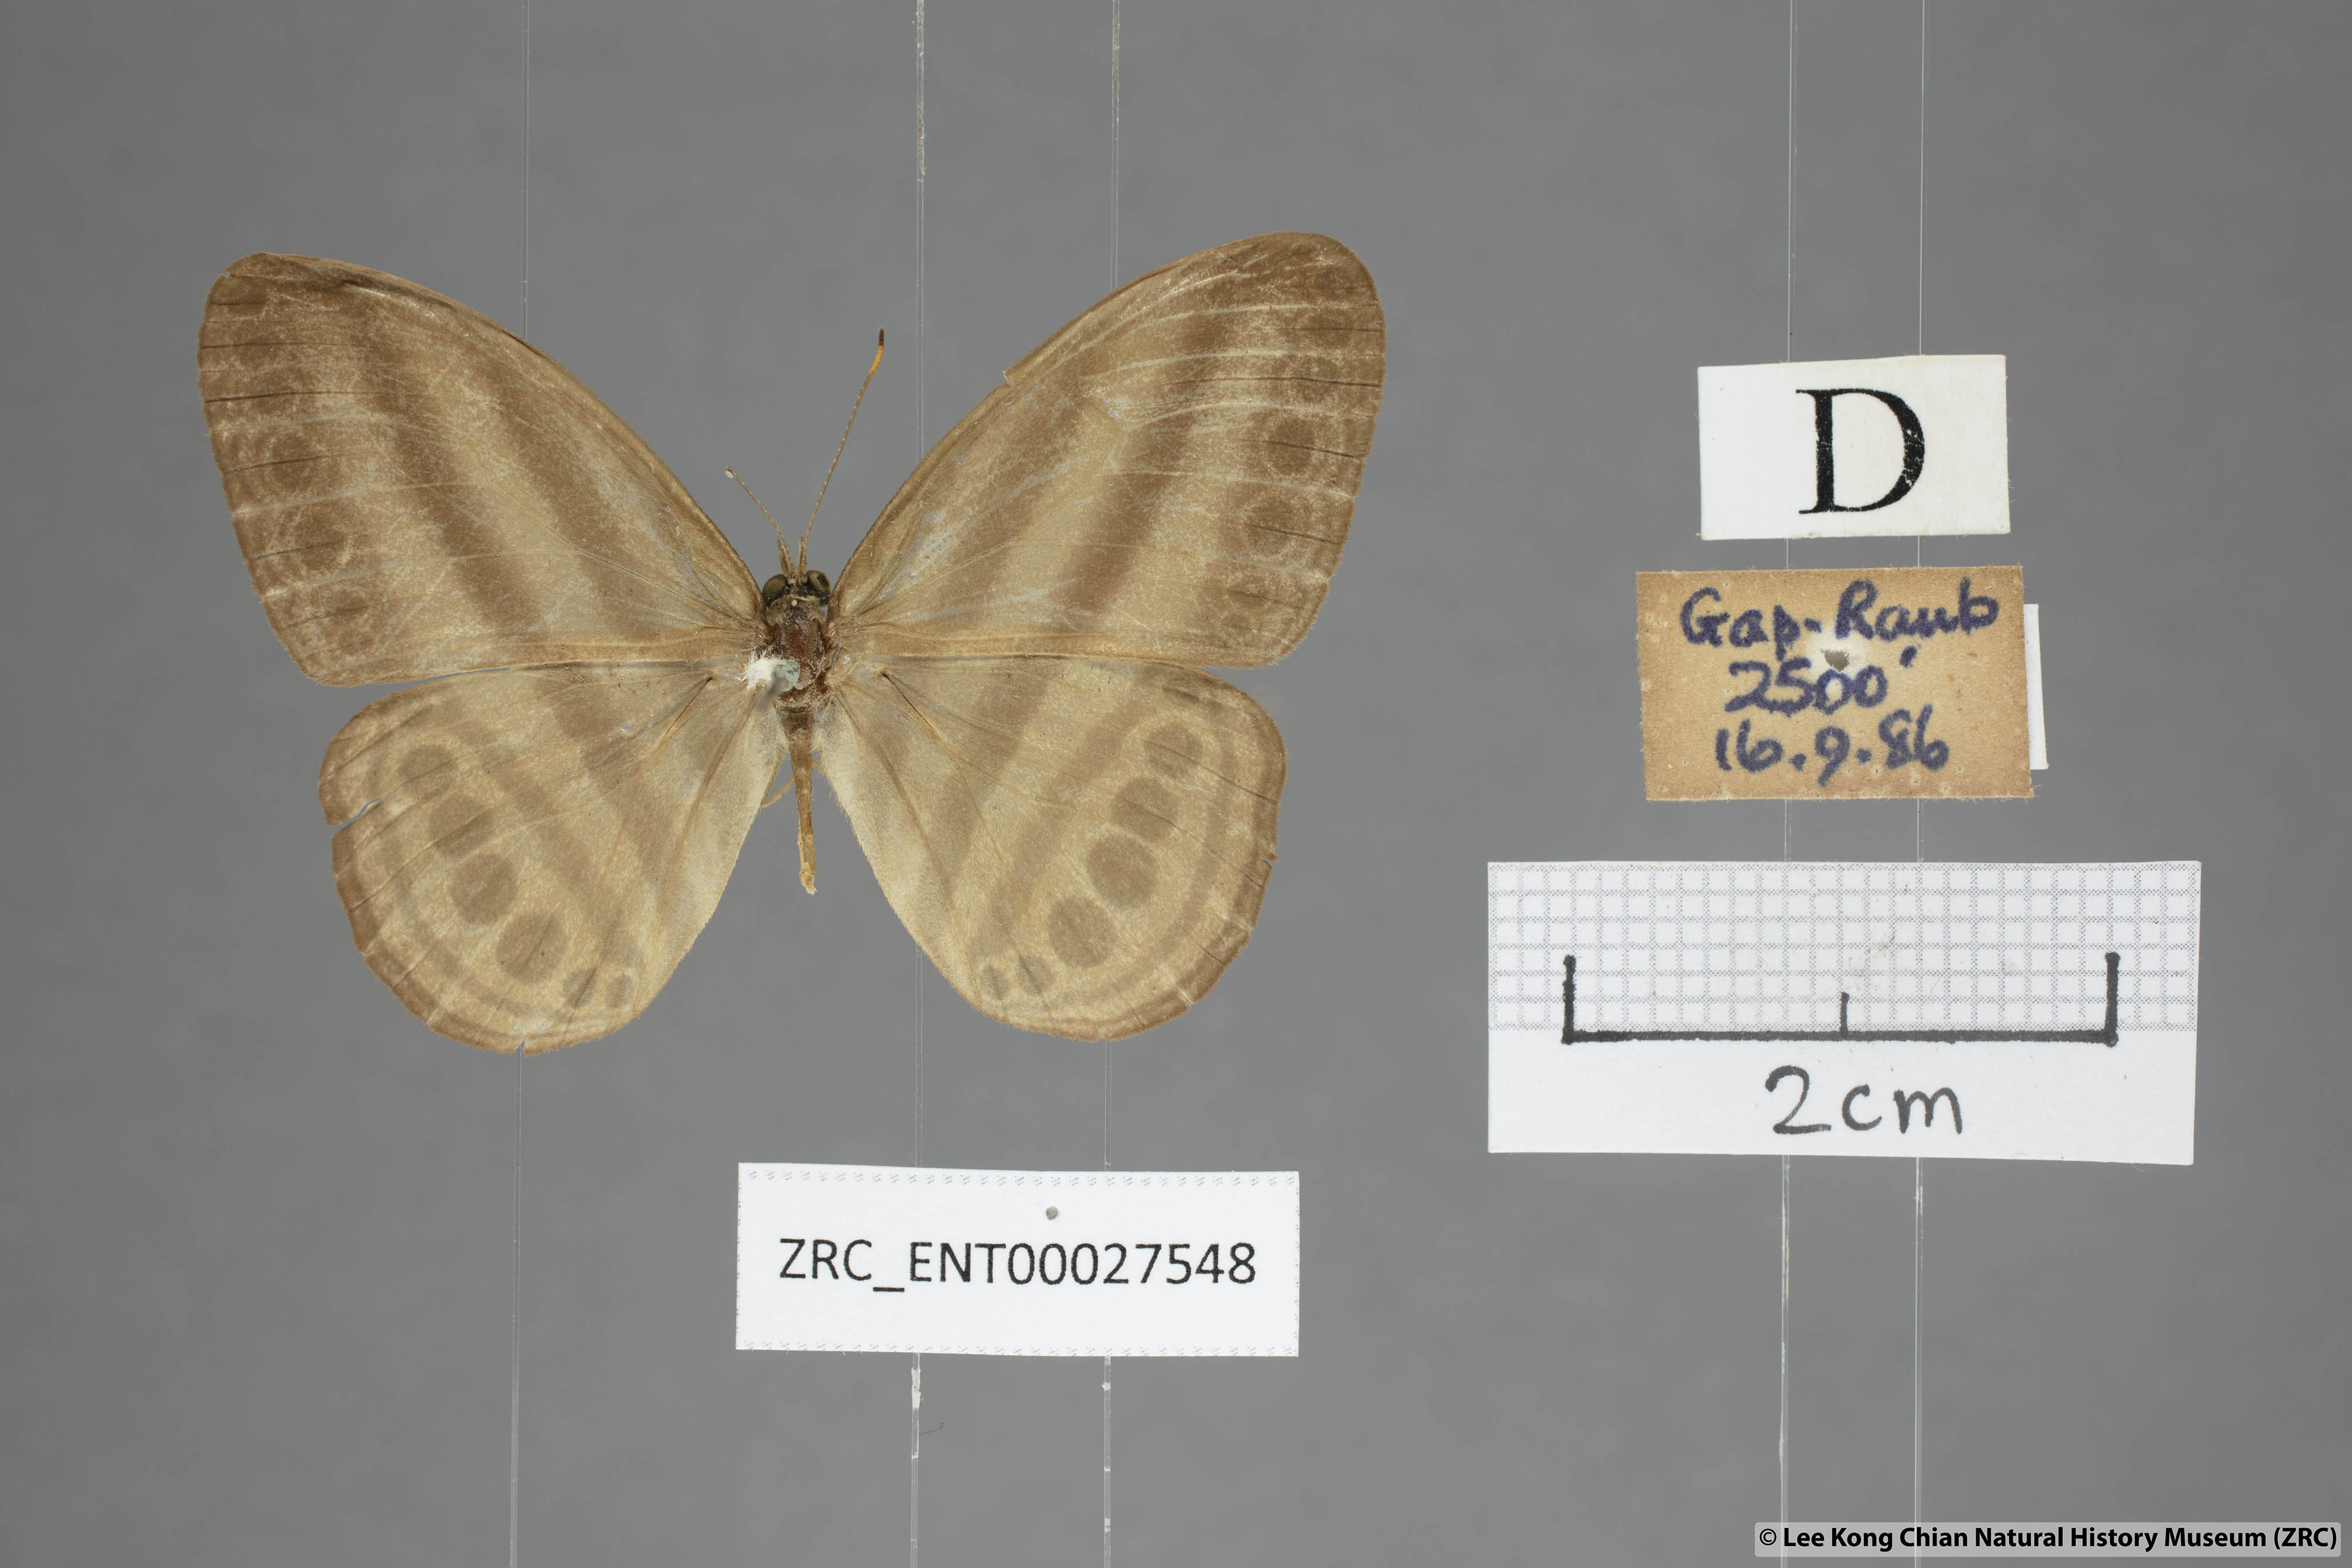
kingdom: Animalia
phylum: Arthropoda
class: Insecta
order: Lepidoptera
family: Nymphalidae
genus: Ragadia
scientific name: Ragadia makata
